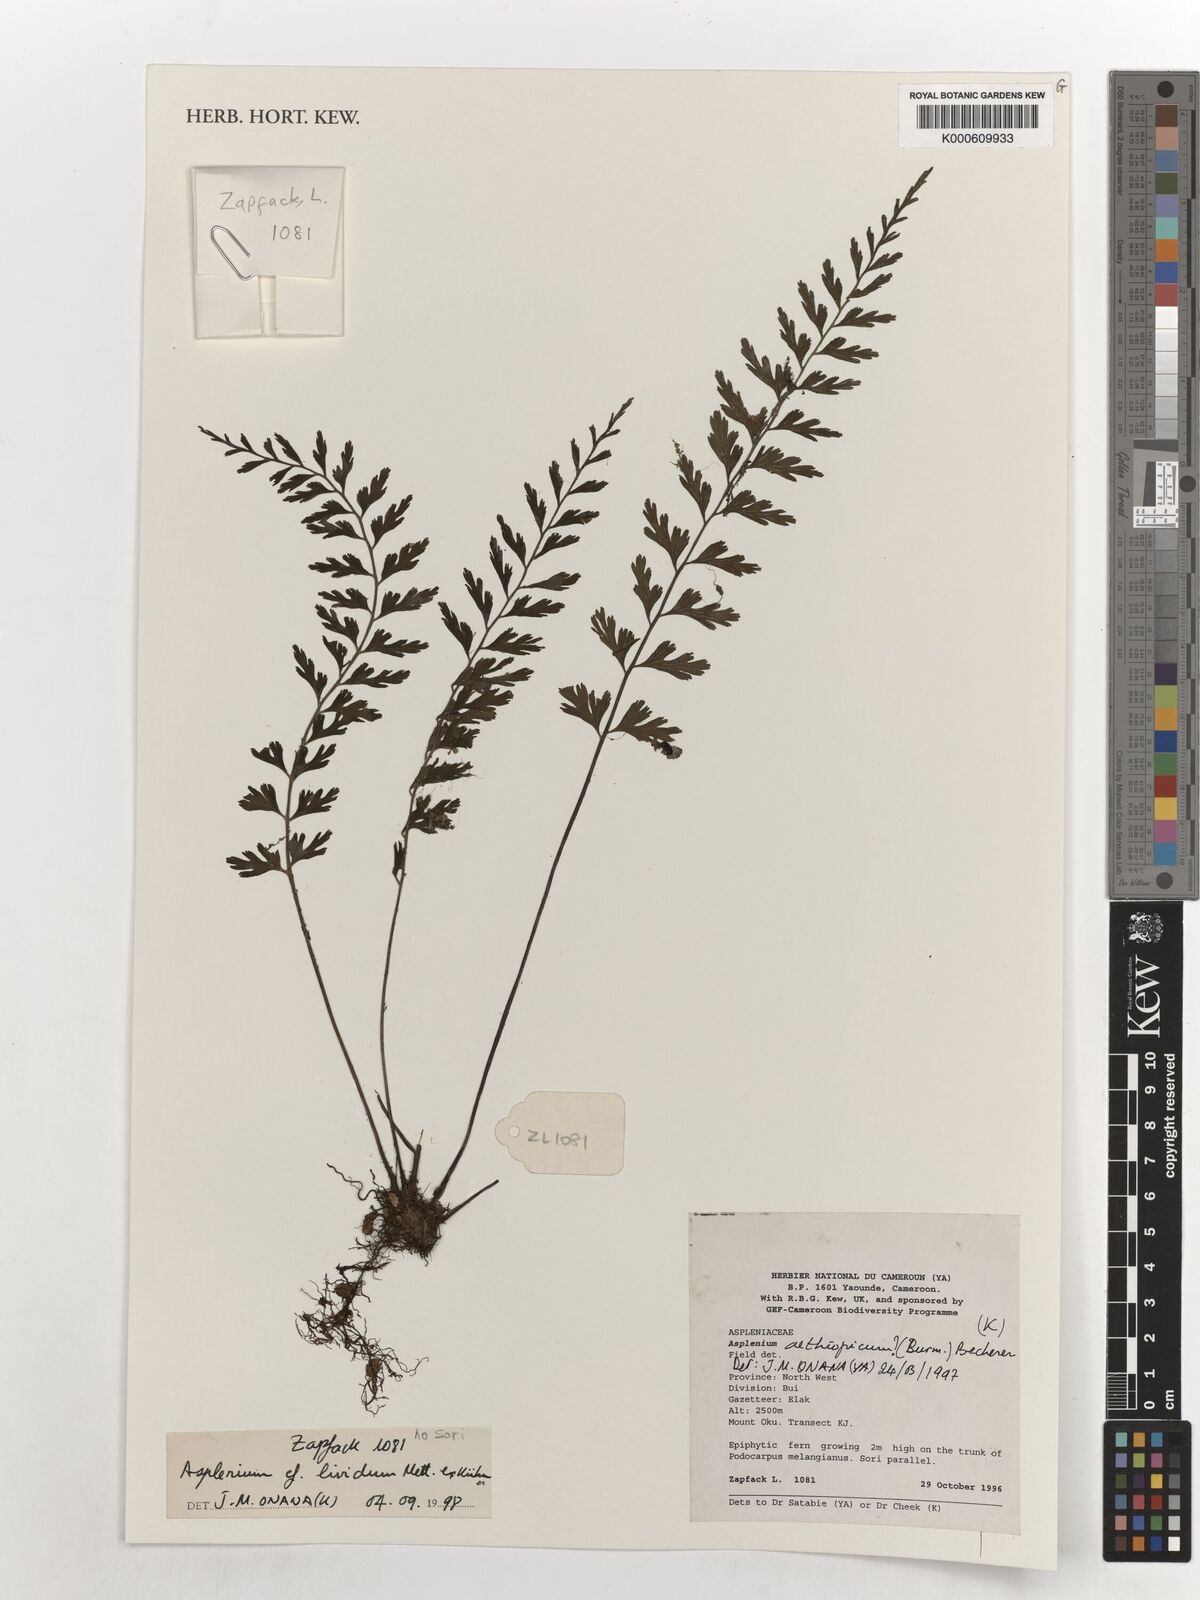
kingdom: Plantae
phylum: Tracheophyta
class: Polypodiopsida
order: Polypodiales
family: Aspleniaceae
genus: Asplenium
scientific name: Asplenium lividum
